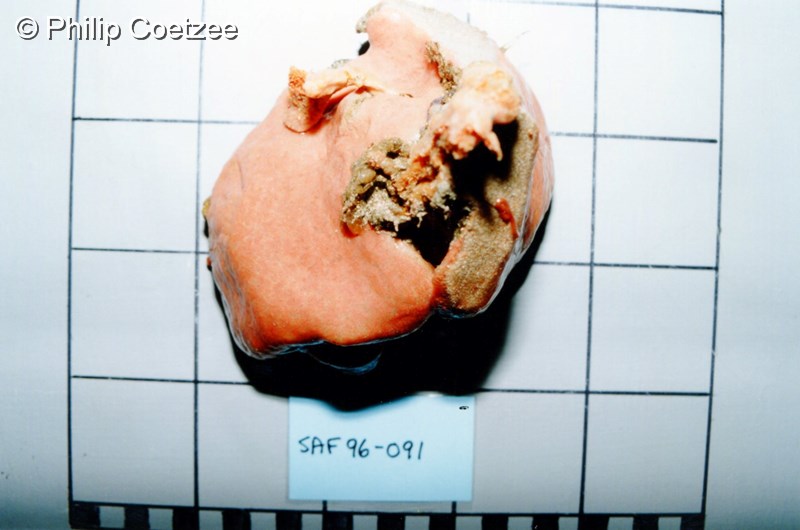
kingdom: Animalia
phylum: Chordata
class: Ascidiacea
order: Aplousobranchia
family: Polyclinidae
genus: Aplidium
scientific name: Aplidium
